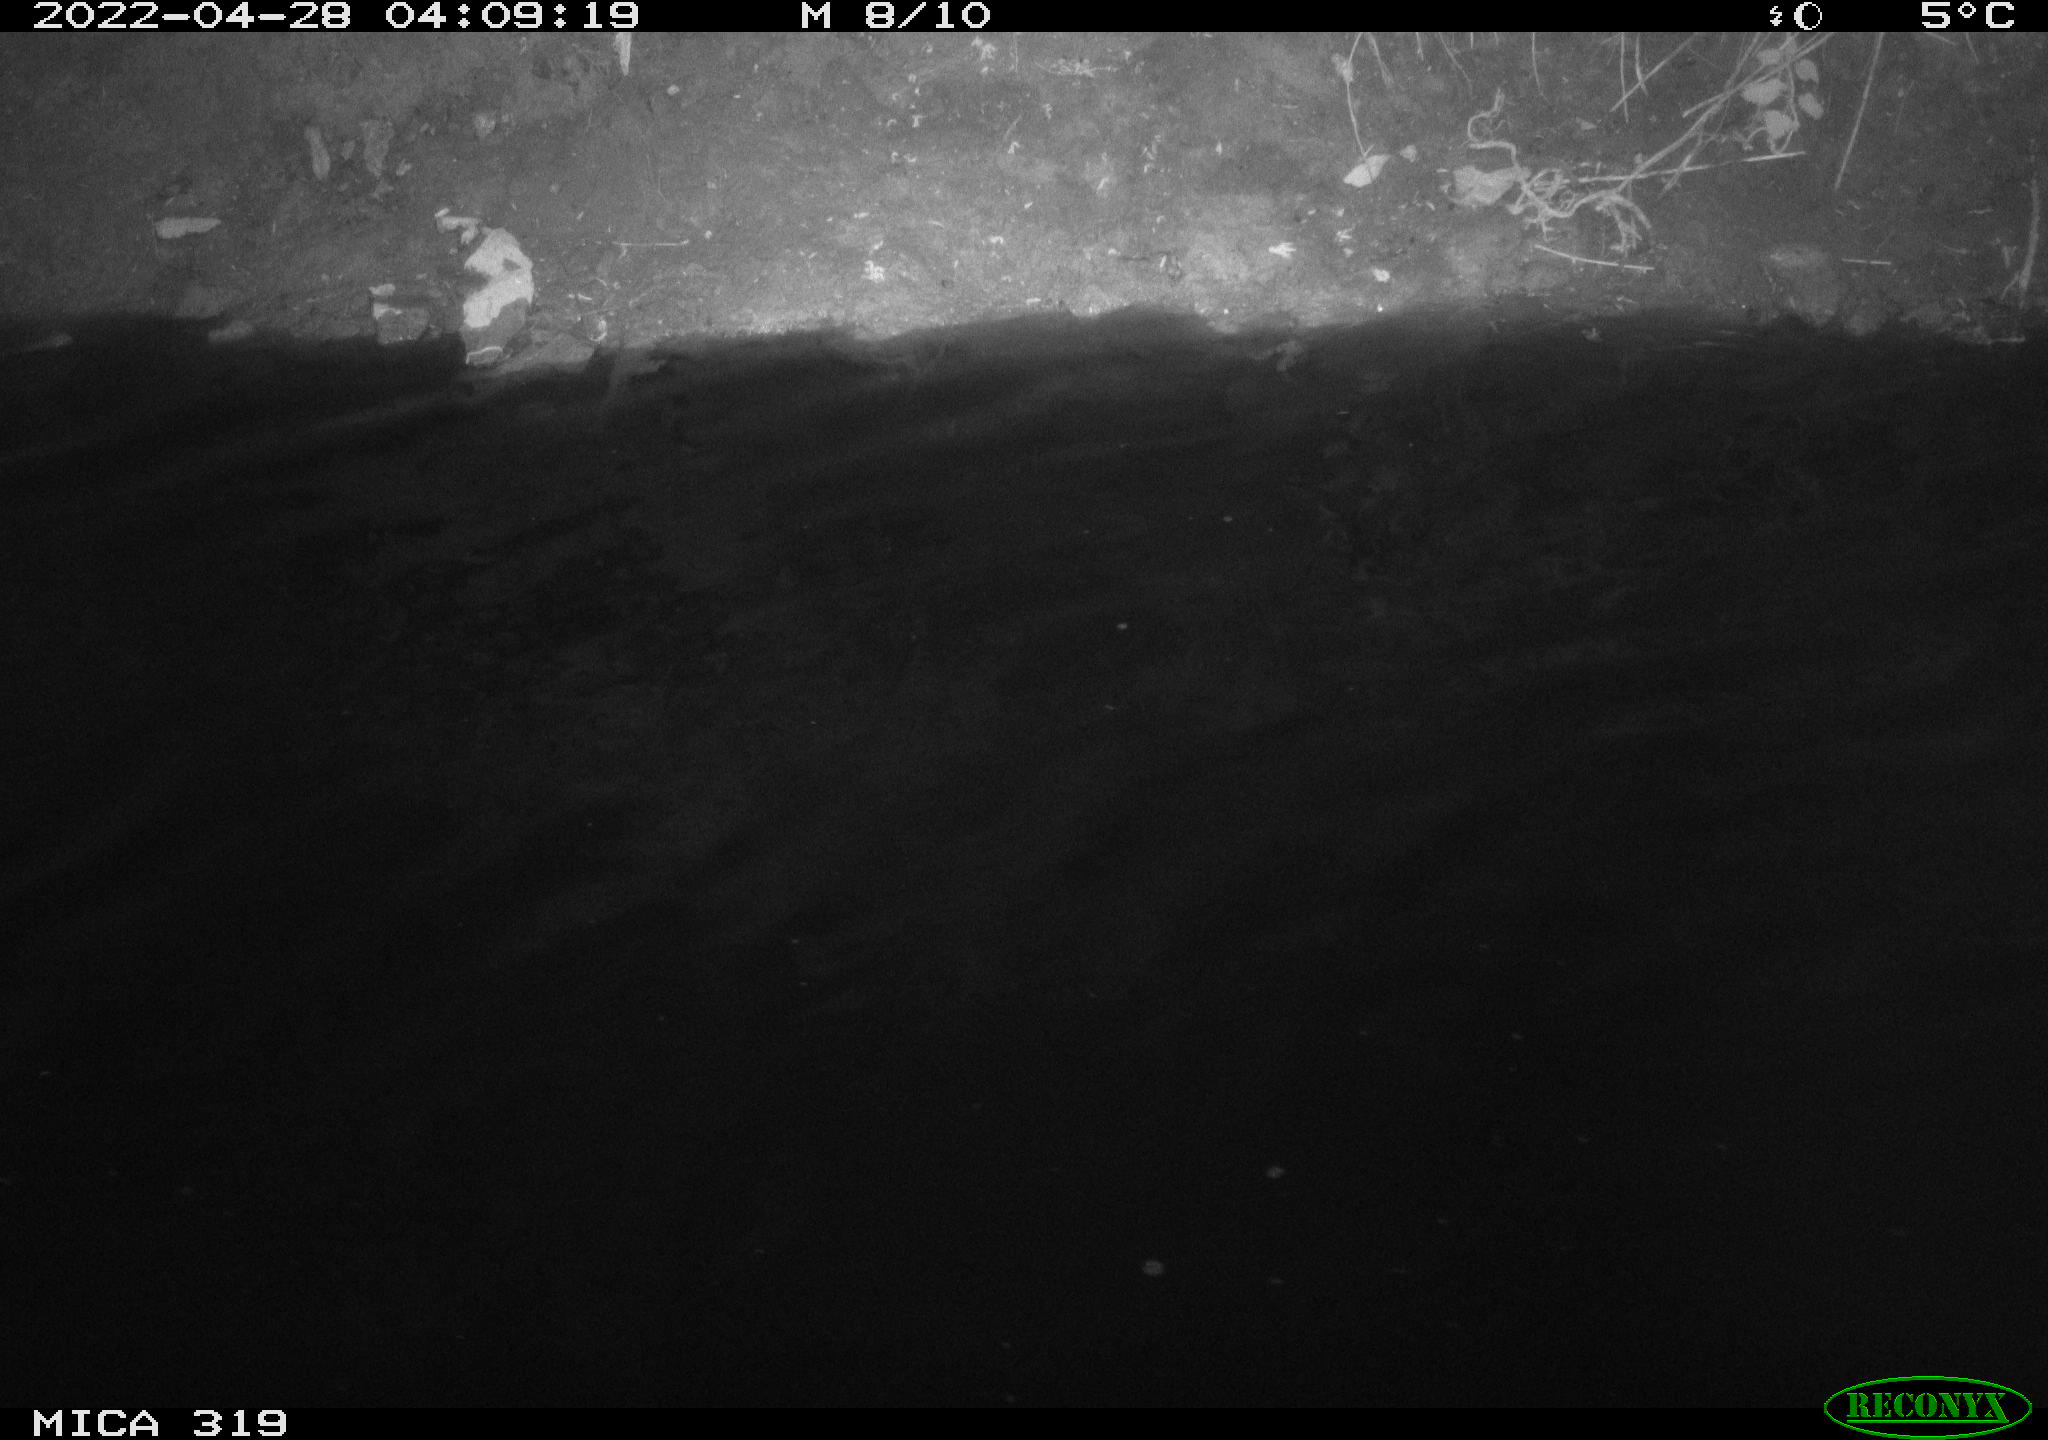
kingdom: Animalia
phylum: Chordata
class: Aves
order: Anseriformes
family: Anatidae
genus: Anas
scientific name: Anas platyrhynchos
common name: Mallard
